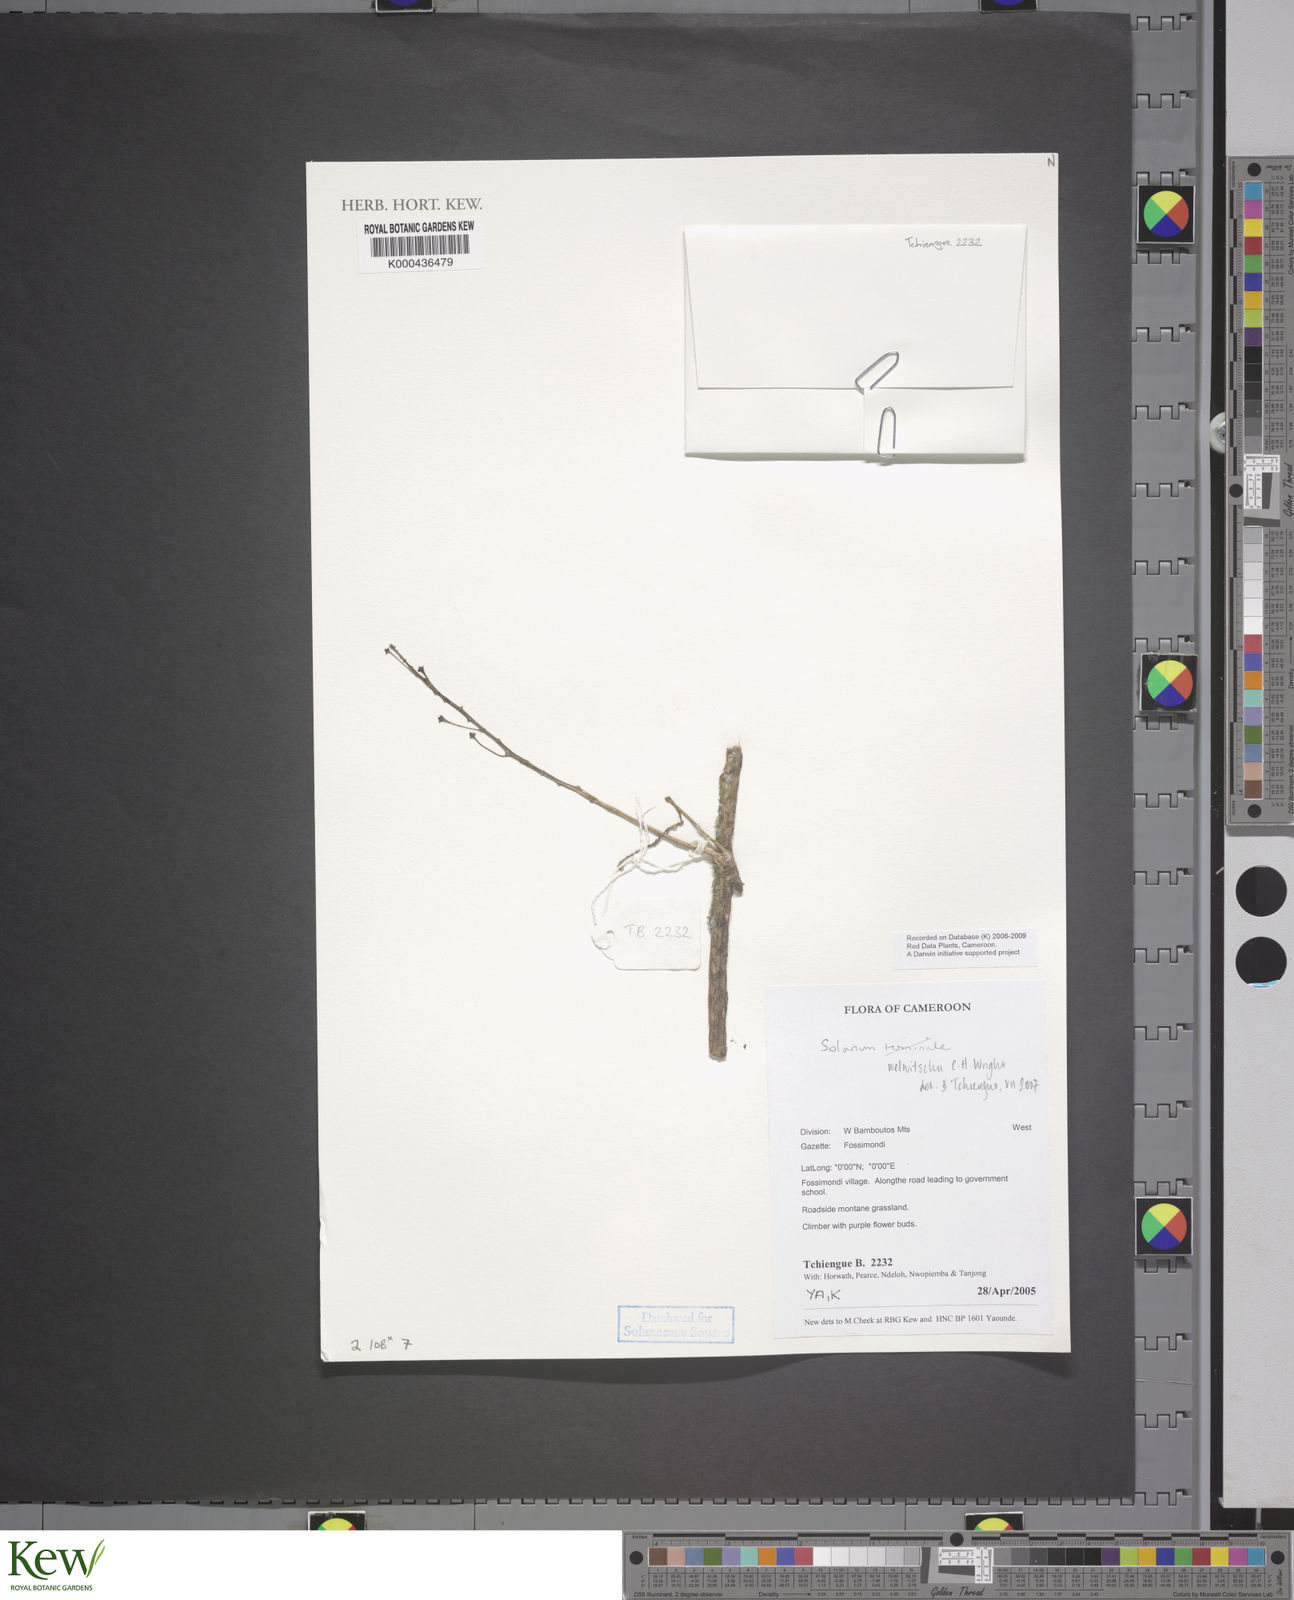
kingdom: Plantae
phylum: Tracheophyta
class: Magnoliopsida
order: Solanales
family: Solanaceae
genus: Solanum
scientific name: Solanum terminale
